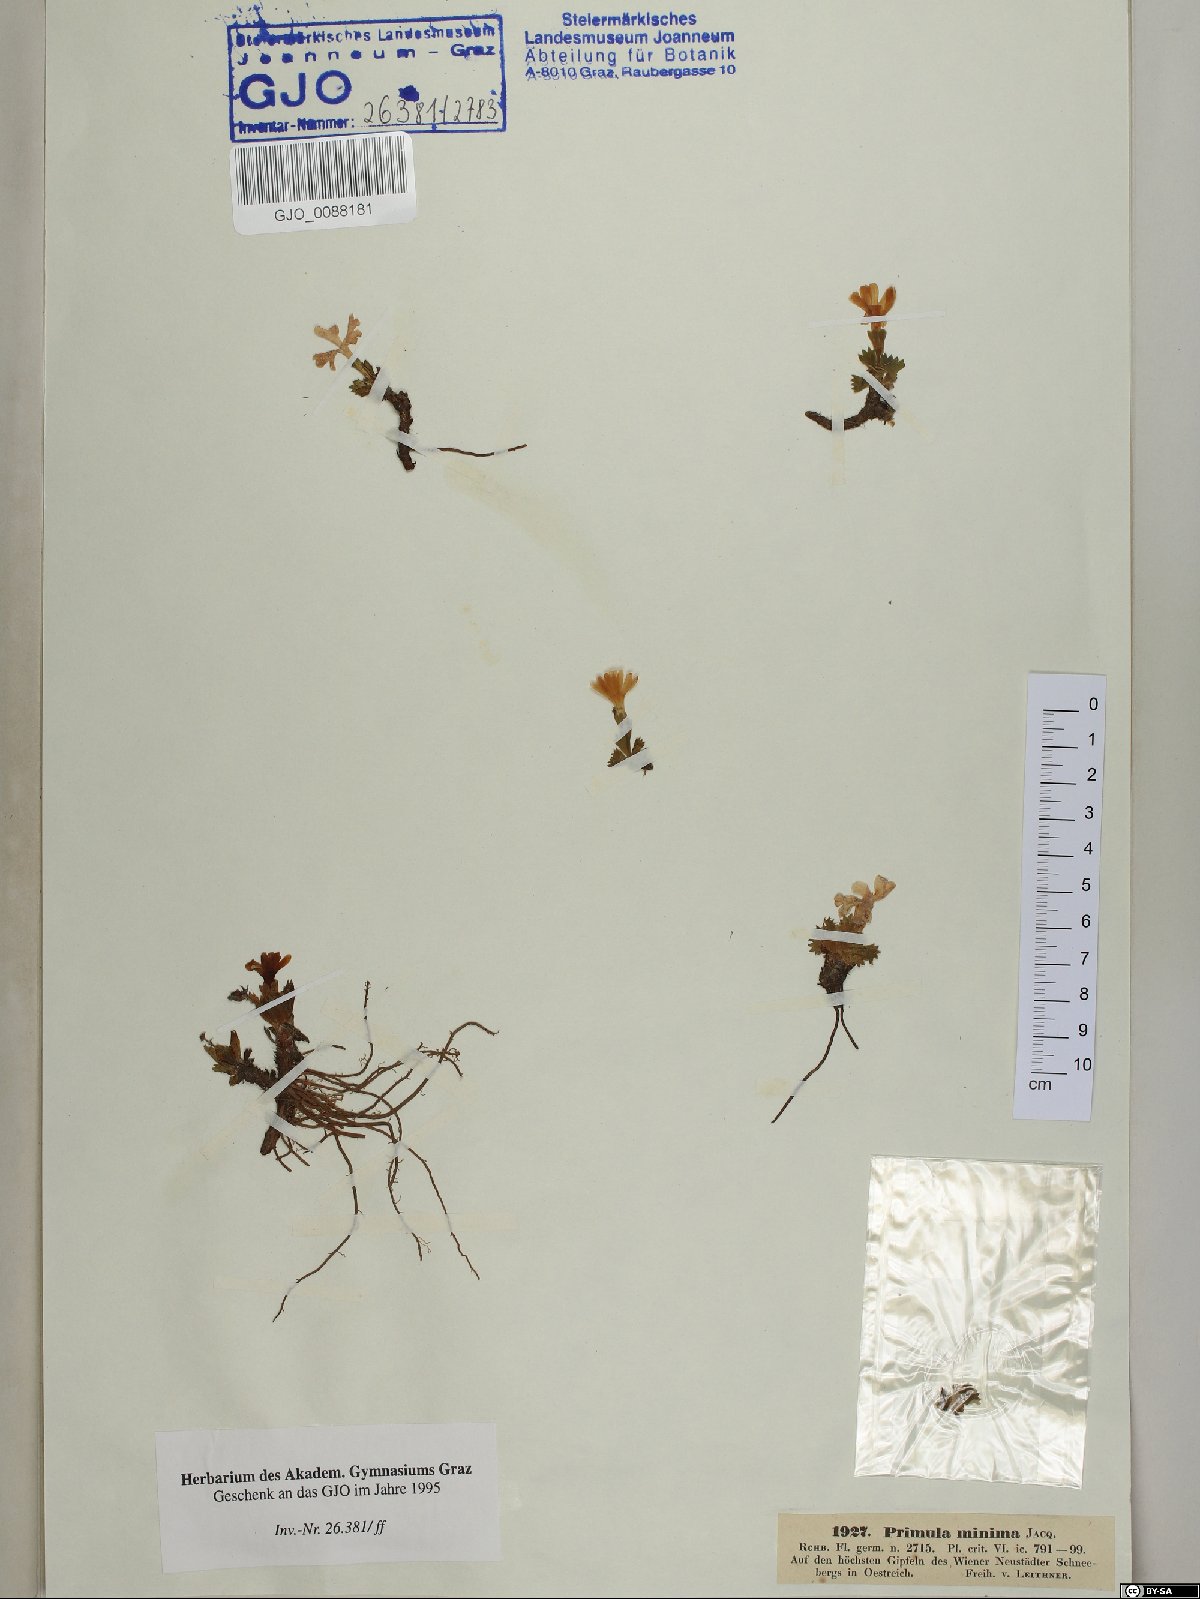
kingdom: Plantae
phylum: Tracheophyta
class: Magnoliopsida
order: Ericales
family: Primulaceae
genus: Primula
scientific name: Primula minima
